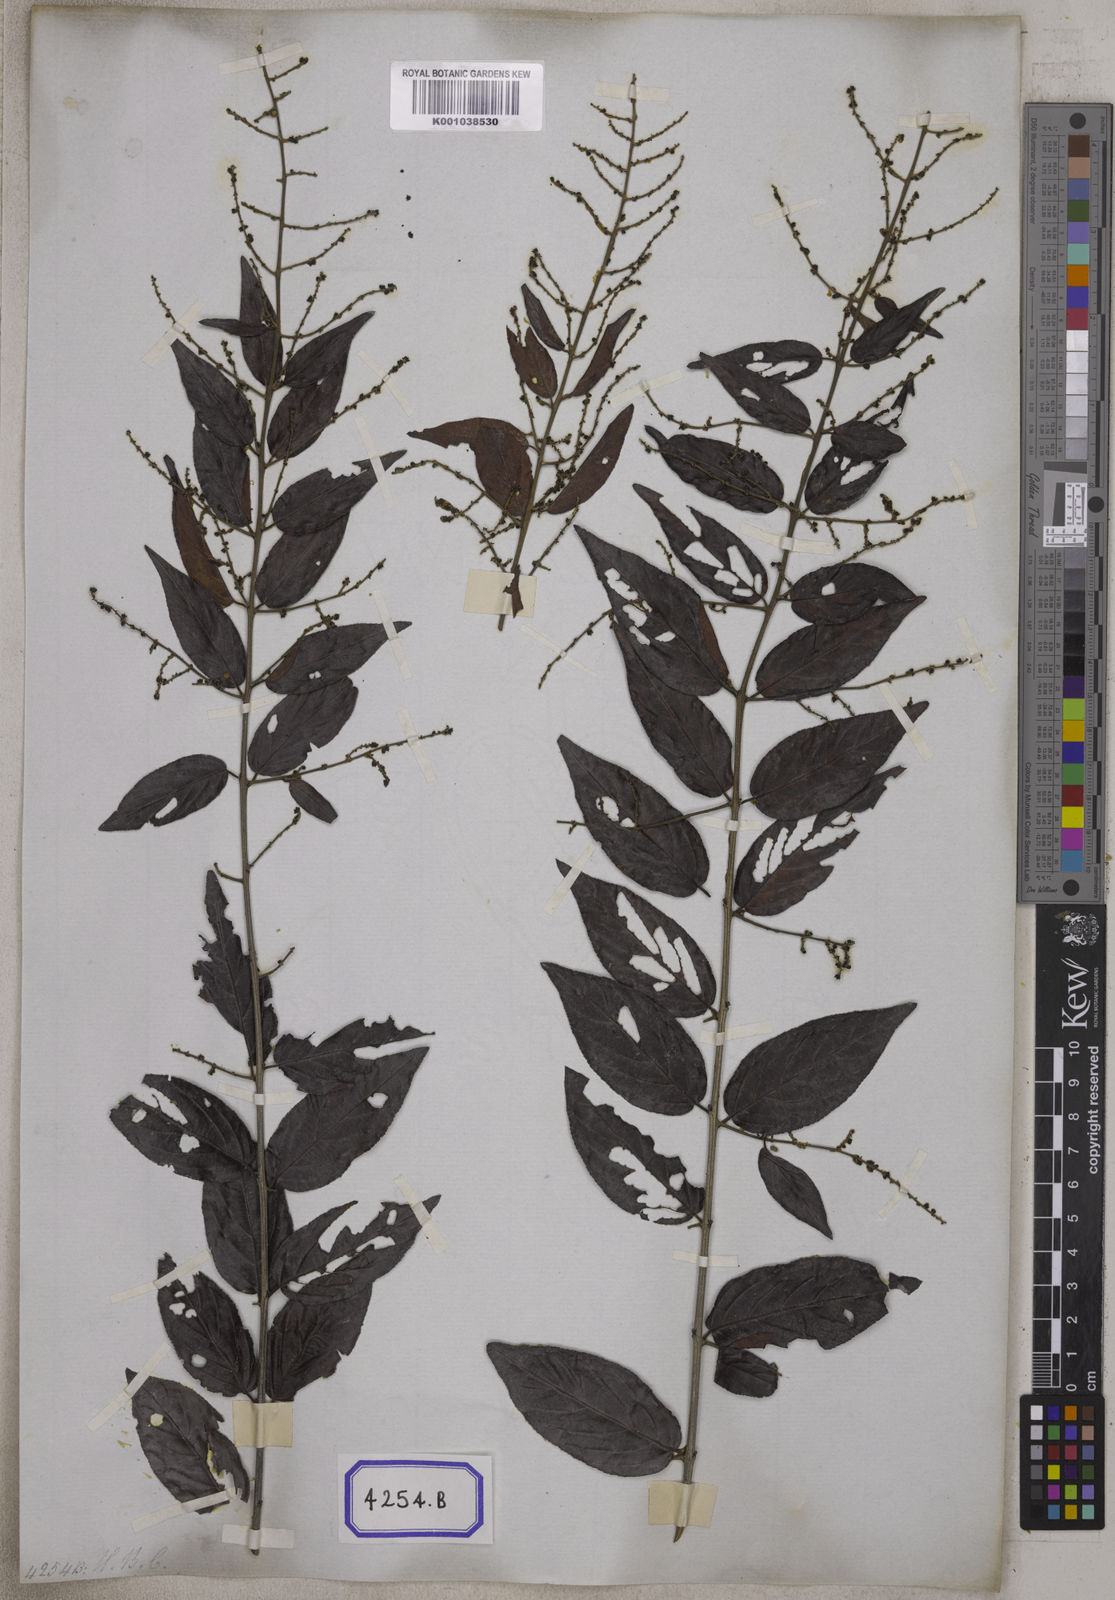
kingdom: Plantae
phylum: Tracheophyta
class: Magnoliopsida
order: Rosales
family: Rhamnaceae
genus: Sageretia
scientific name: Sageretia filiformis
